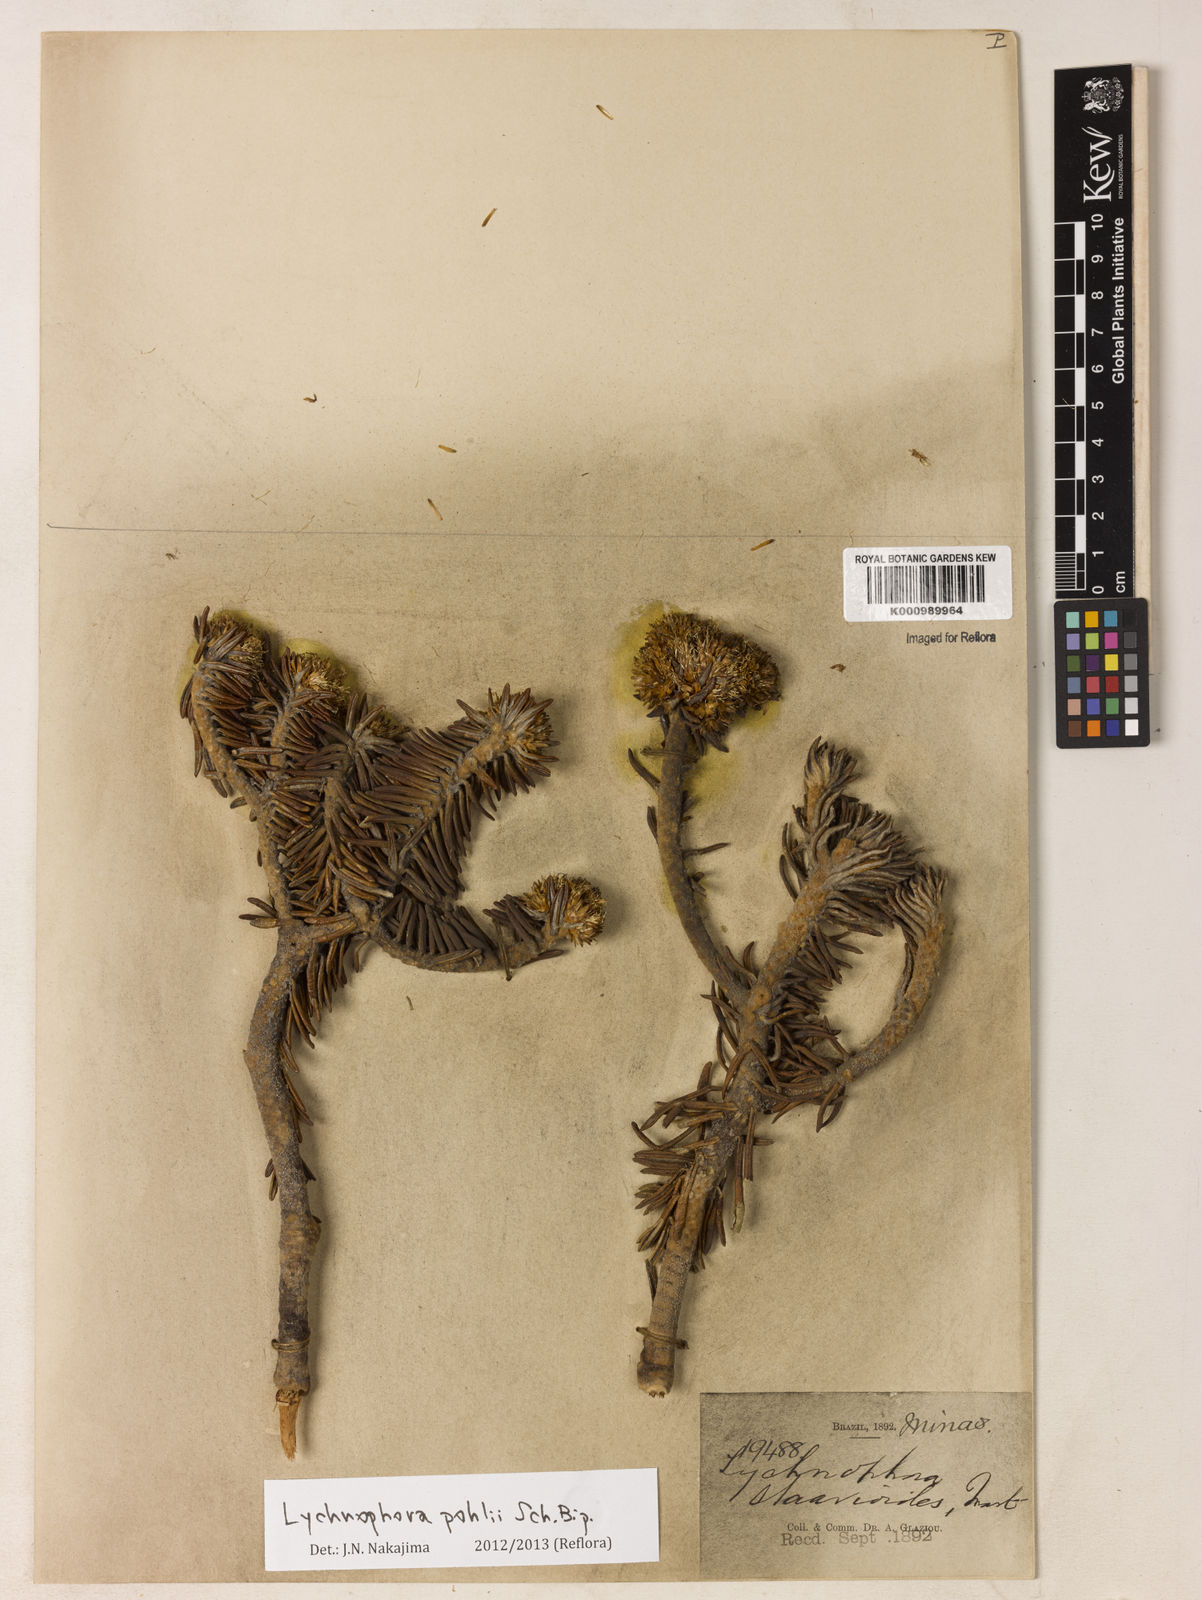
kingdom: Plantae
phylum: Tracheophyta
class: Magnoliopsida
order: Asterales
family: Asteraceae
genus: Lychnophora
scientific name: Lychnophora pohlii
